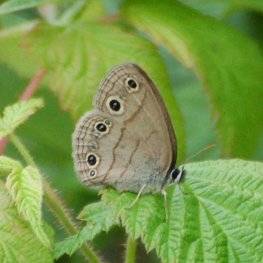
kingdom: Animalia
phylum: Arthropoda
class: Insecta
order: Lepidoptera
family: Nymphalidae
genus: Euptychia
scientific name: Euptychia cymela
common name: Little Wood Satyr
